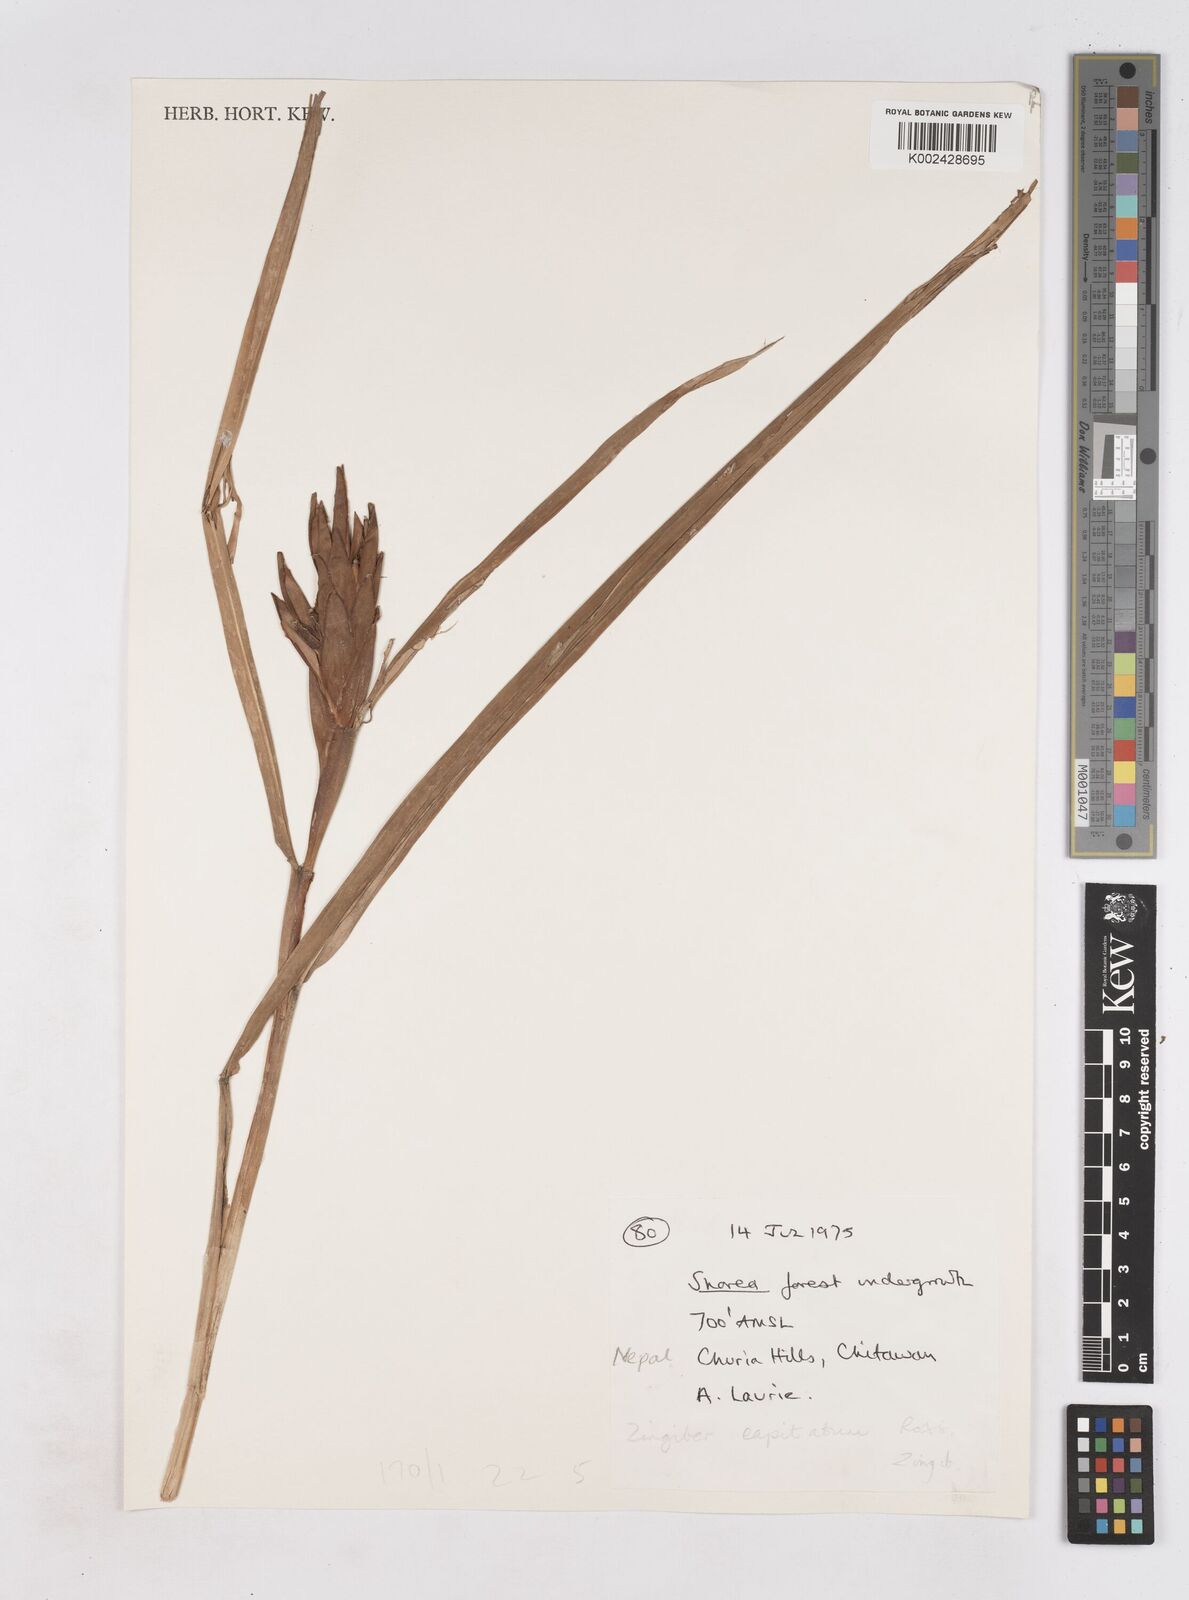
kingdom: Plantae
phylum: Tracheophyta
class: Liliopsida
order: Zingiberales
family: Zingiberaceae
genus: Zingiber
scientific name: Zingiber capitatum
